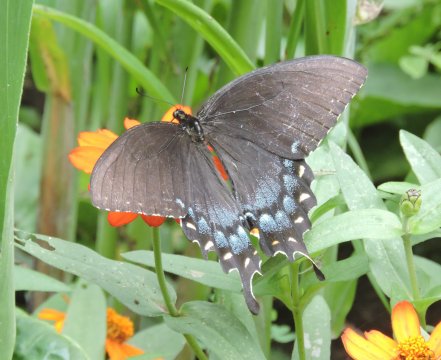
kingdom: Animalia
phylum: Arthropoda
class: Insecta
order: Lepidoptera
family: Papilionidae
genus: Pterourus
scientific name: Pterourus glaucus
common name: Eastern Tiger Swallowtail
